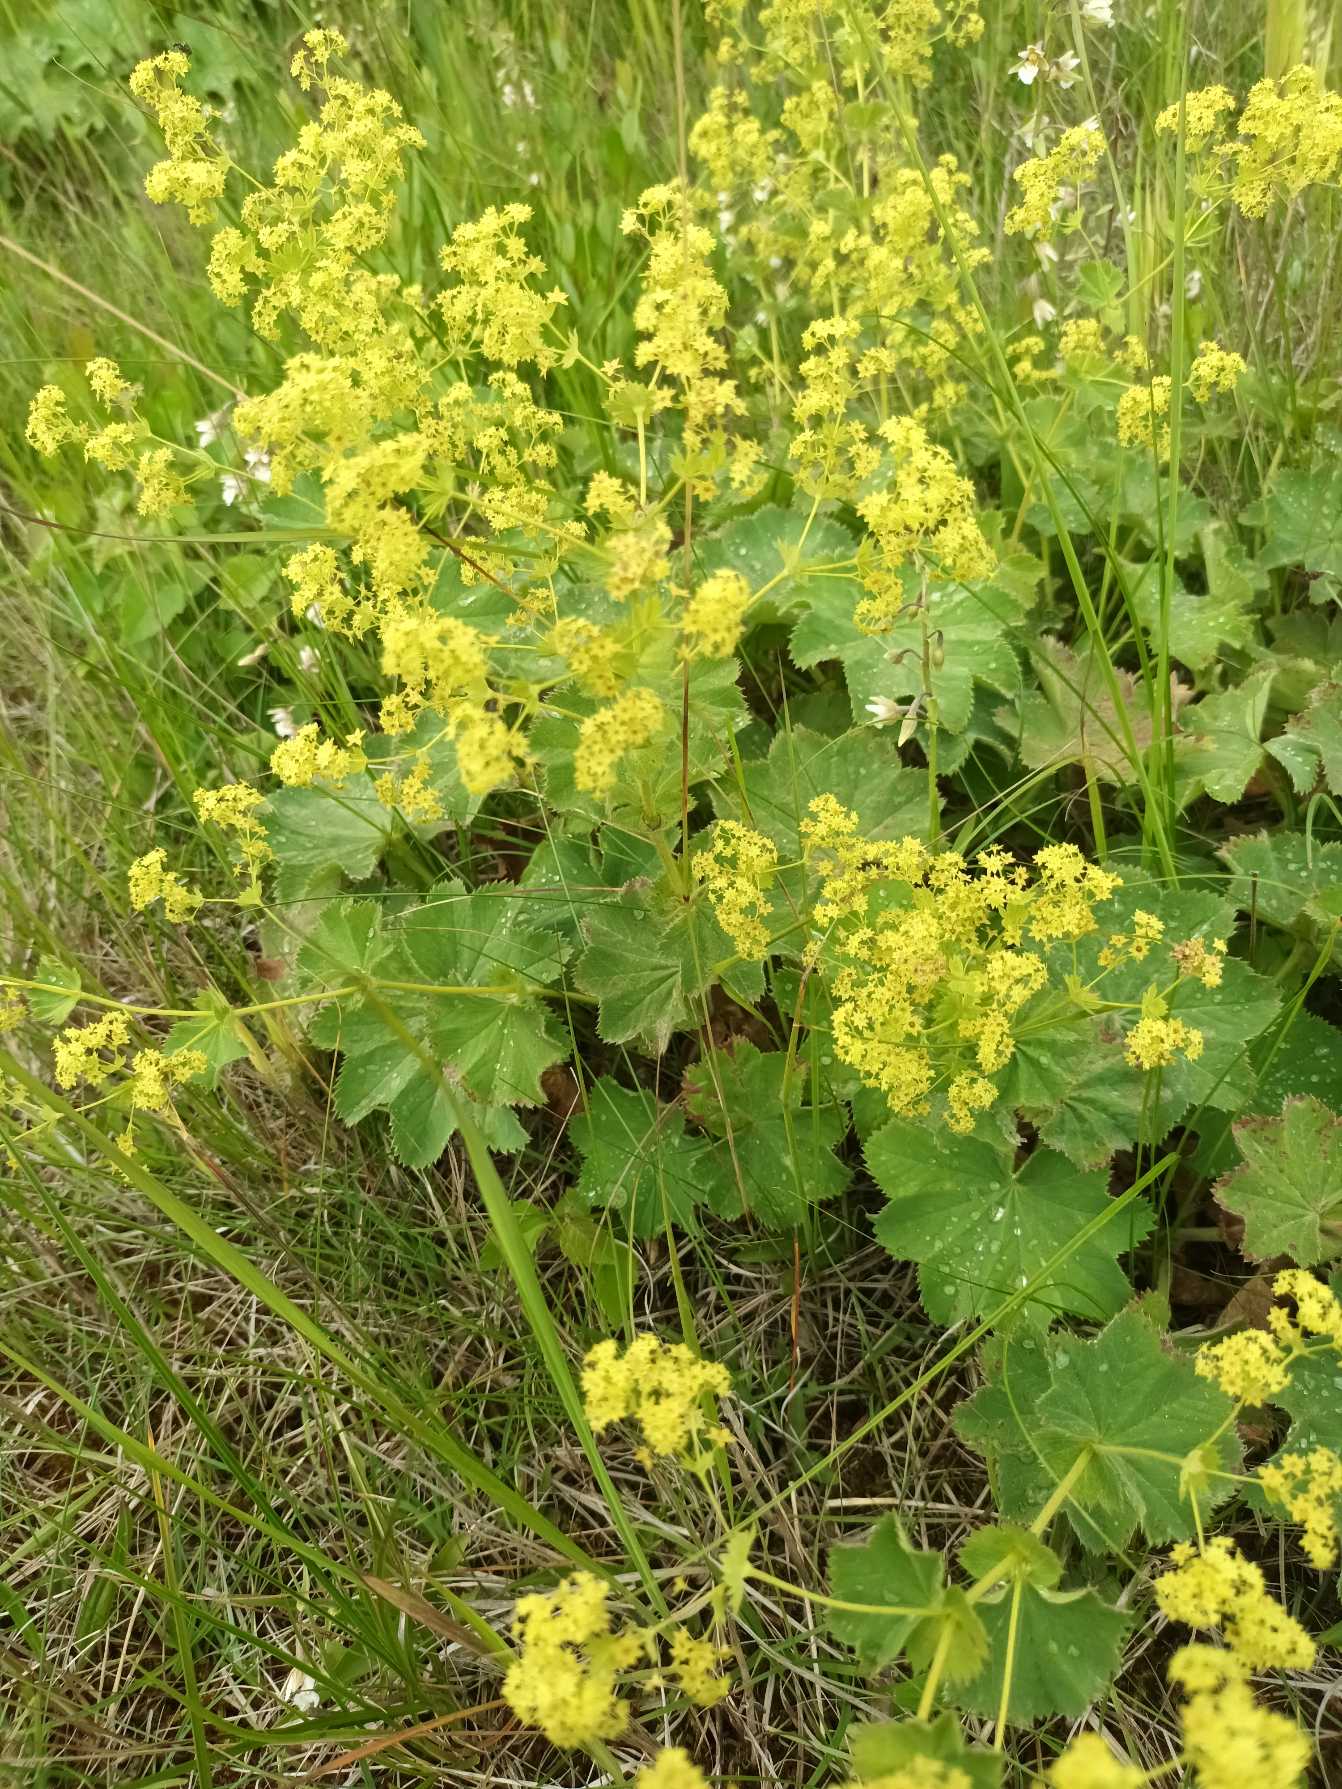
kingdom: Plantae
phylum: Tracheophyta
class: Magnoliopsida
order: Rosales
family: Rosaceae
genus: Alchemilla
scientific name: Alchemilla mollis
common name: Lådden løvefod
